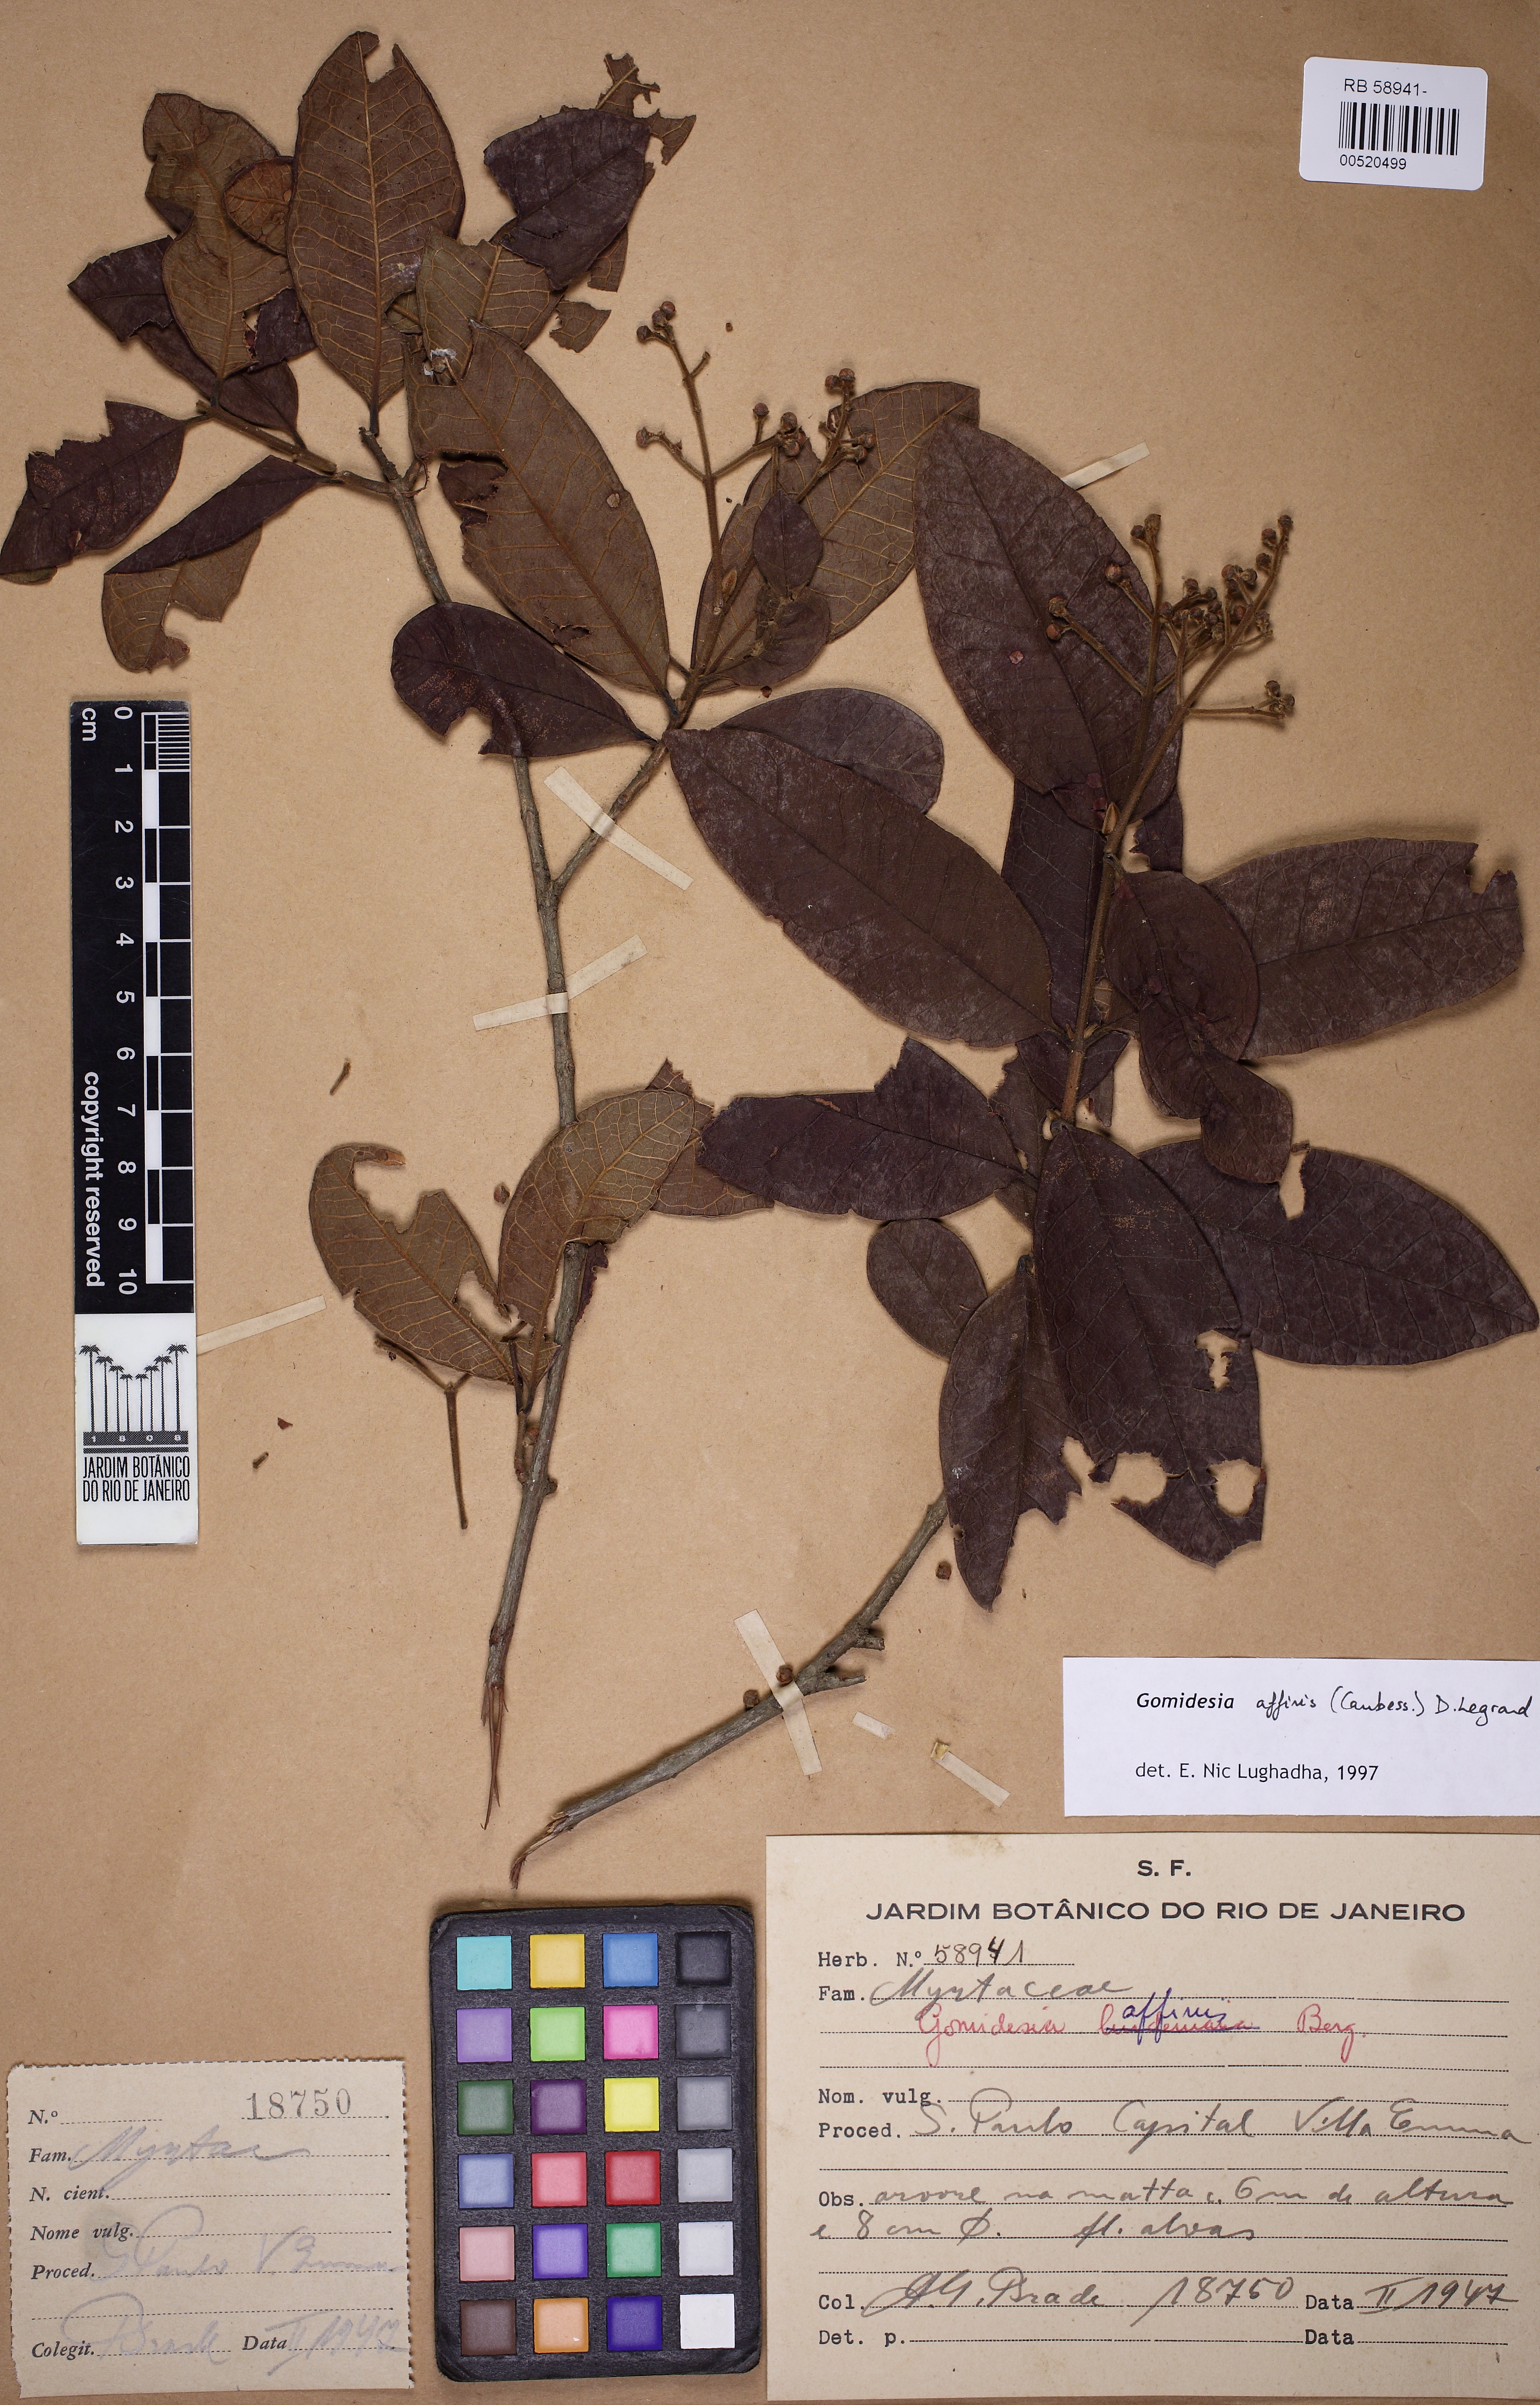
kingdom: Plantae
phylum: Tracheophyta
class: Magnoliopsida
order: Myrtales
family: Myrtaceae
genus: Myrcia
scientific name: Myrcia hebepetala
